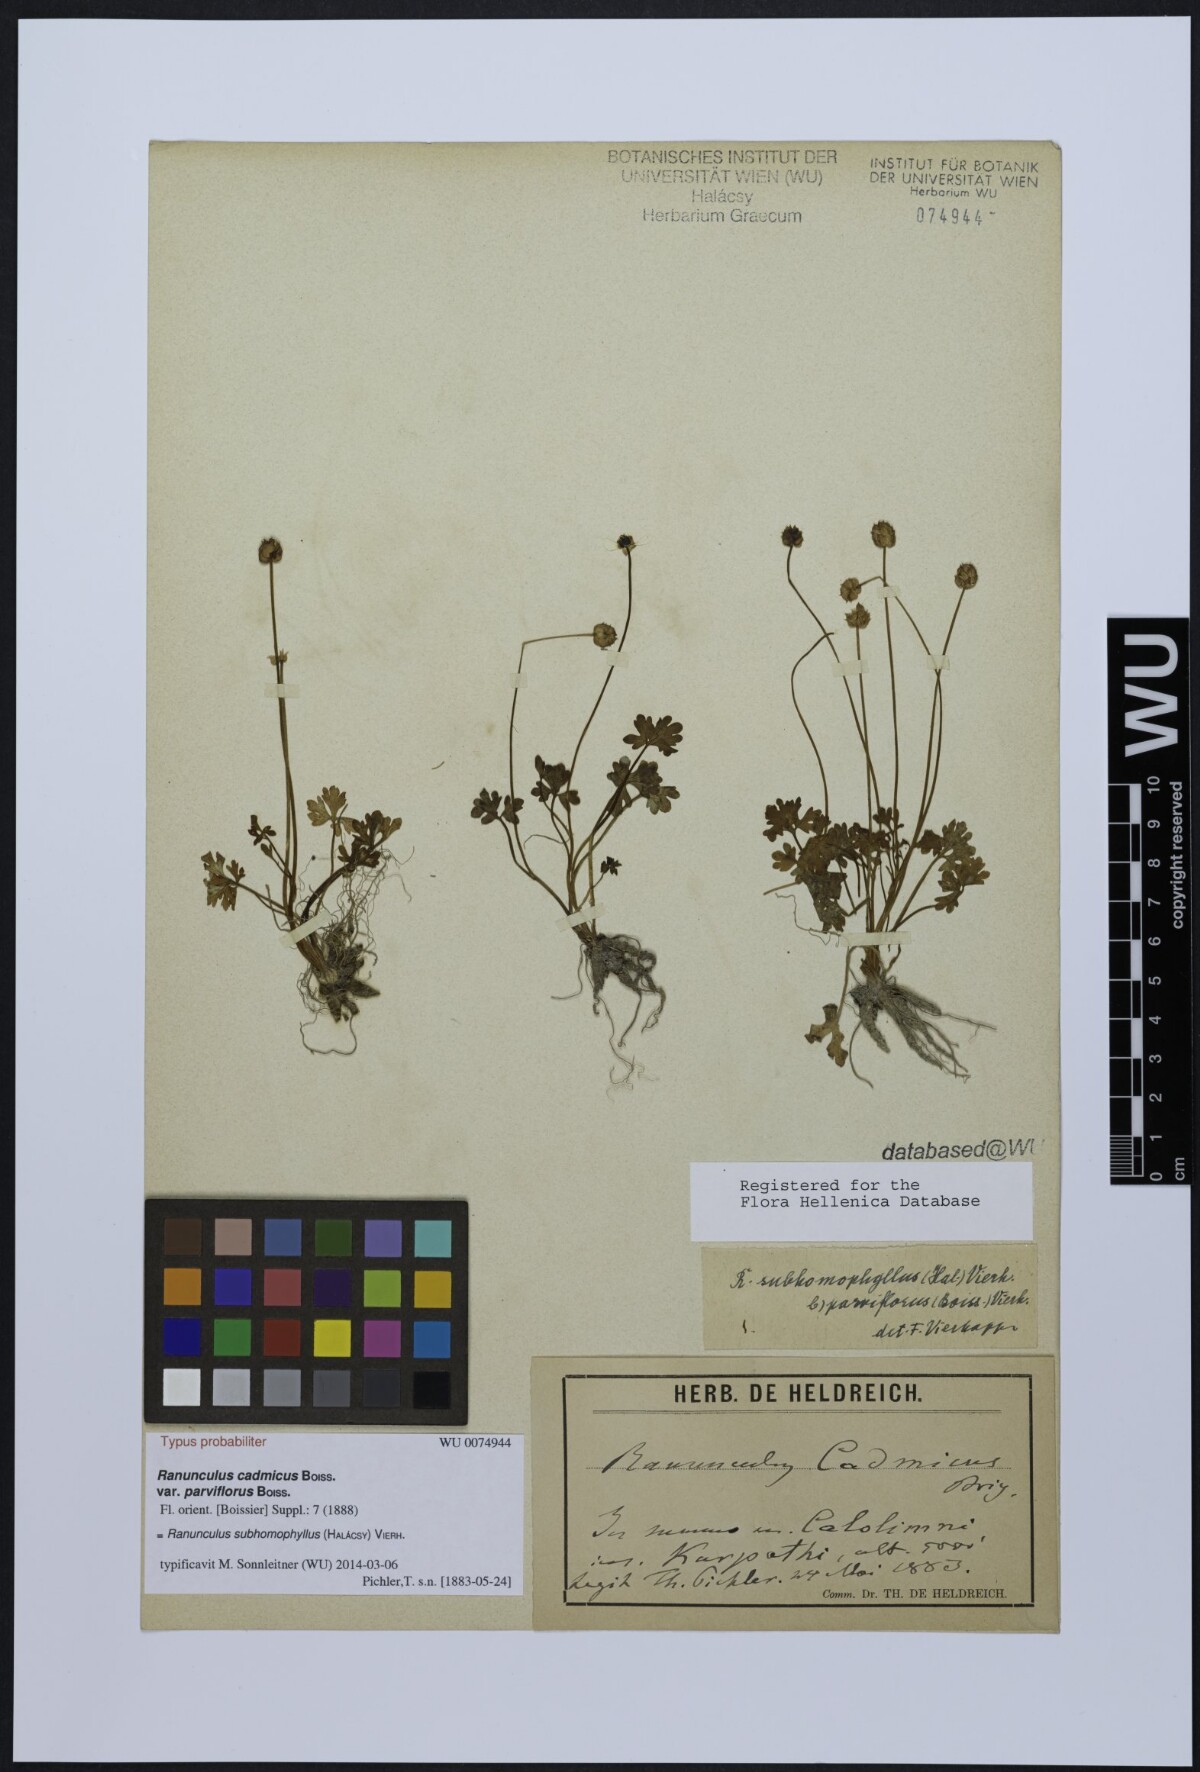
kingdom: Plantae
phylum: Tracheophyta
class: Magnoliopsida
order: Ranunculales
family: Ranunculaceae
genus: Ranunculus
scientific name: Ranunculus cadmicus
